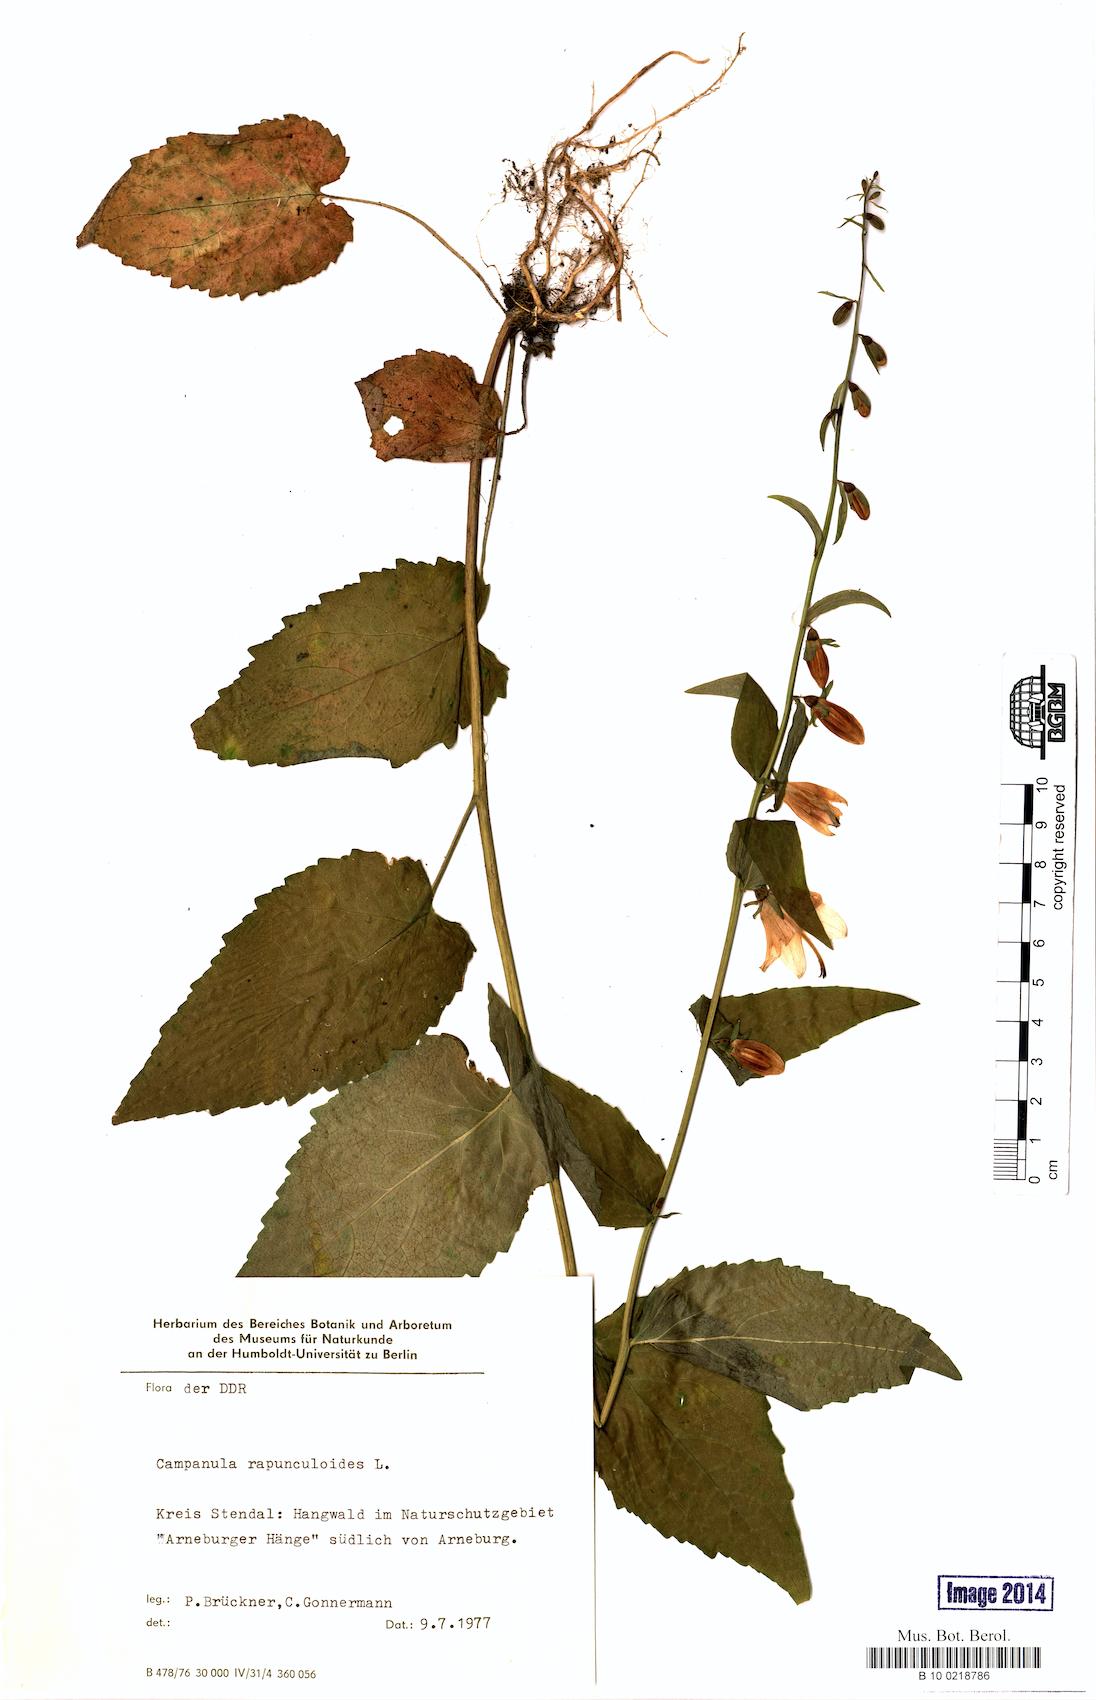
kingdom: Plantae
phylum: Tracheophyta
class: Magnoliopsida
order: Asterales
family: Campanulaceae
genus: Campanula
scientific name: Campanula rapunculoides
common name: Creeping bellflower
